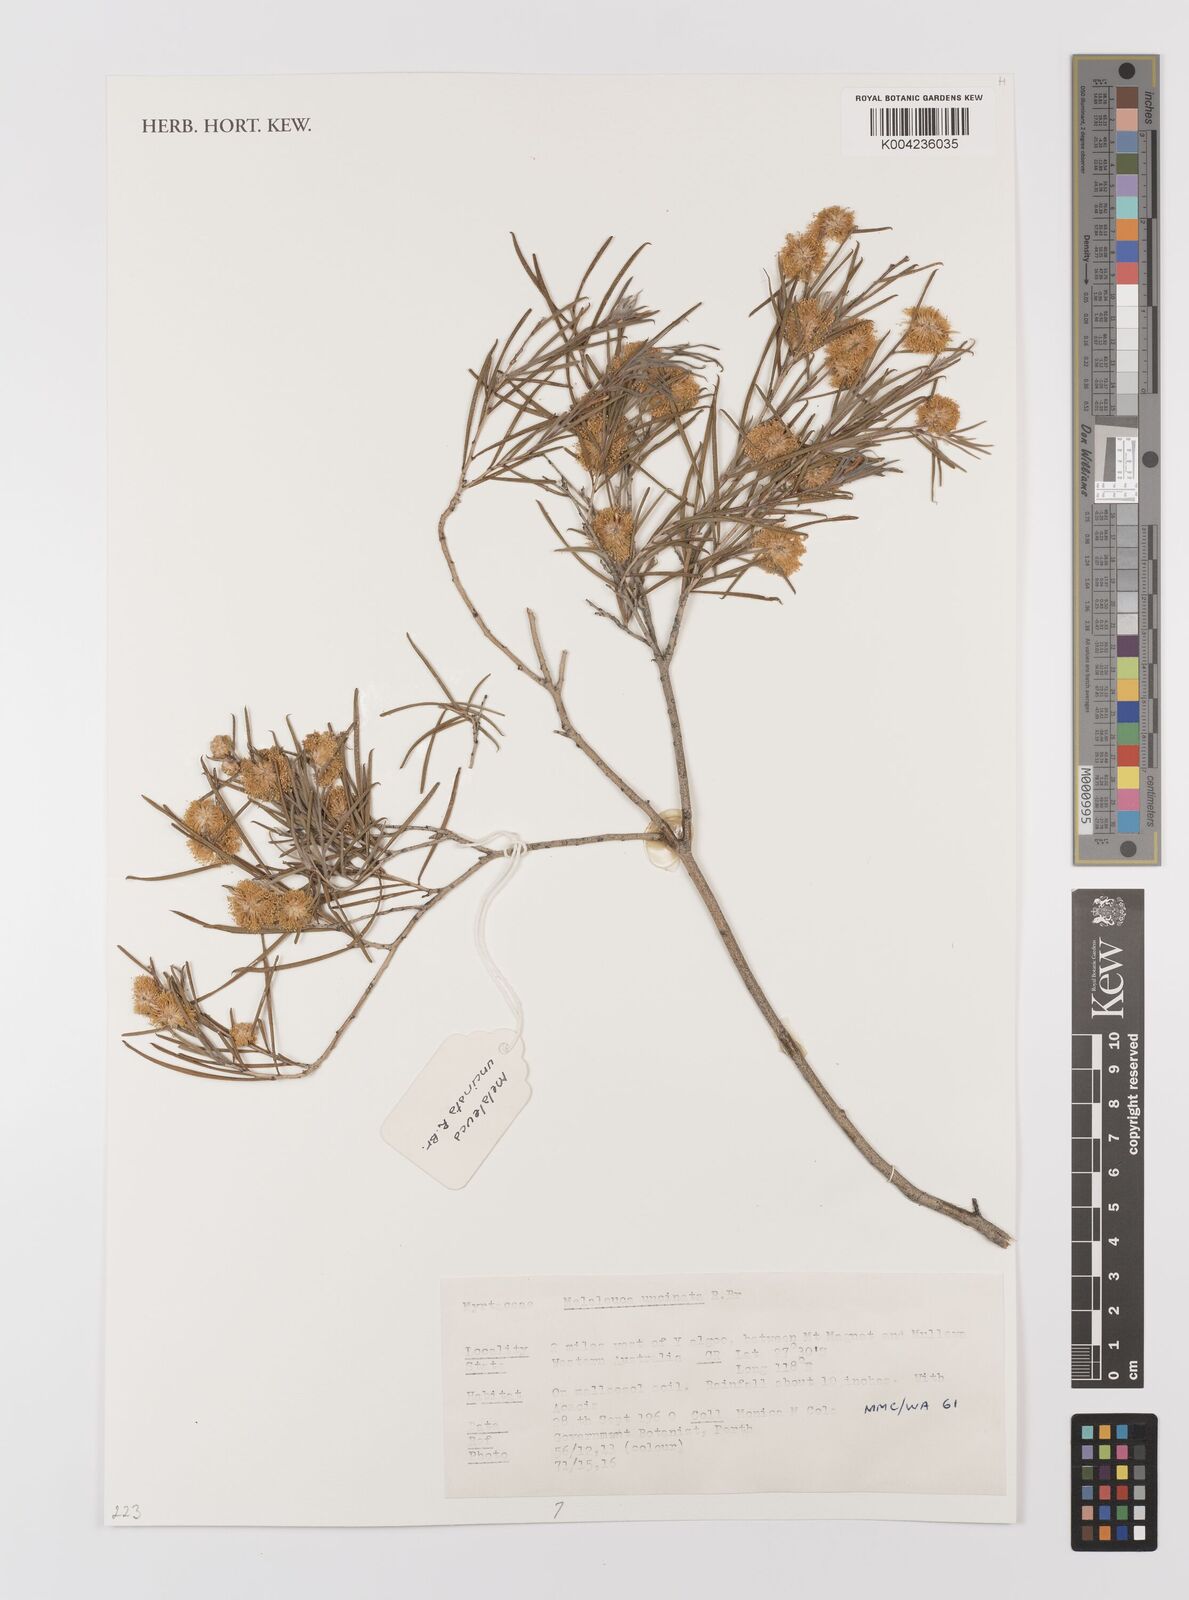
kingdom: Plantae
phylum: Tracheophyta
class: Magnoliopsida
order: Myrtales
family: Myrtaceae
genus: Melaleuca
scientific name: Melaleuca uncinata
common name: Broom honey myrtle
